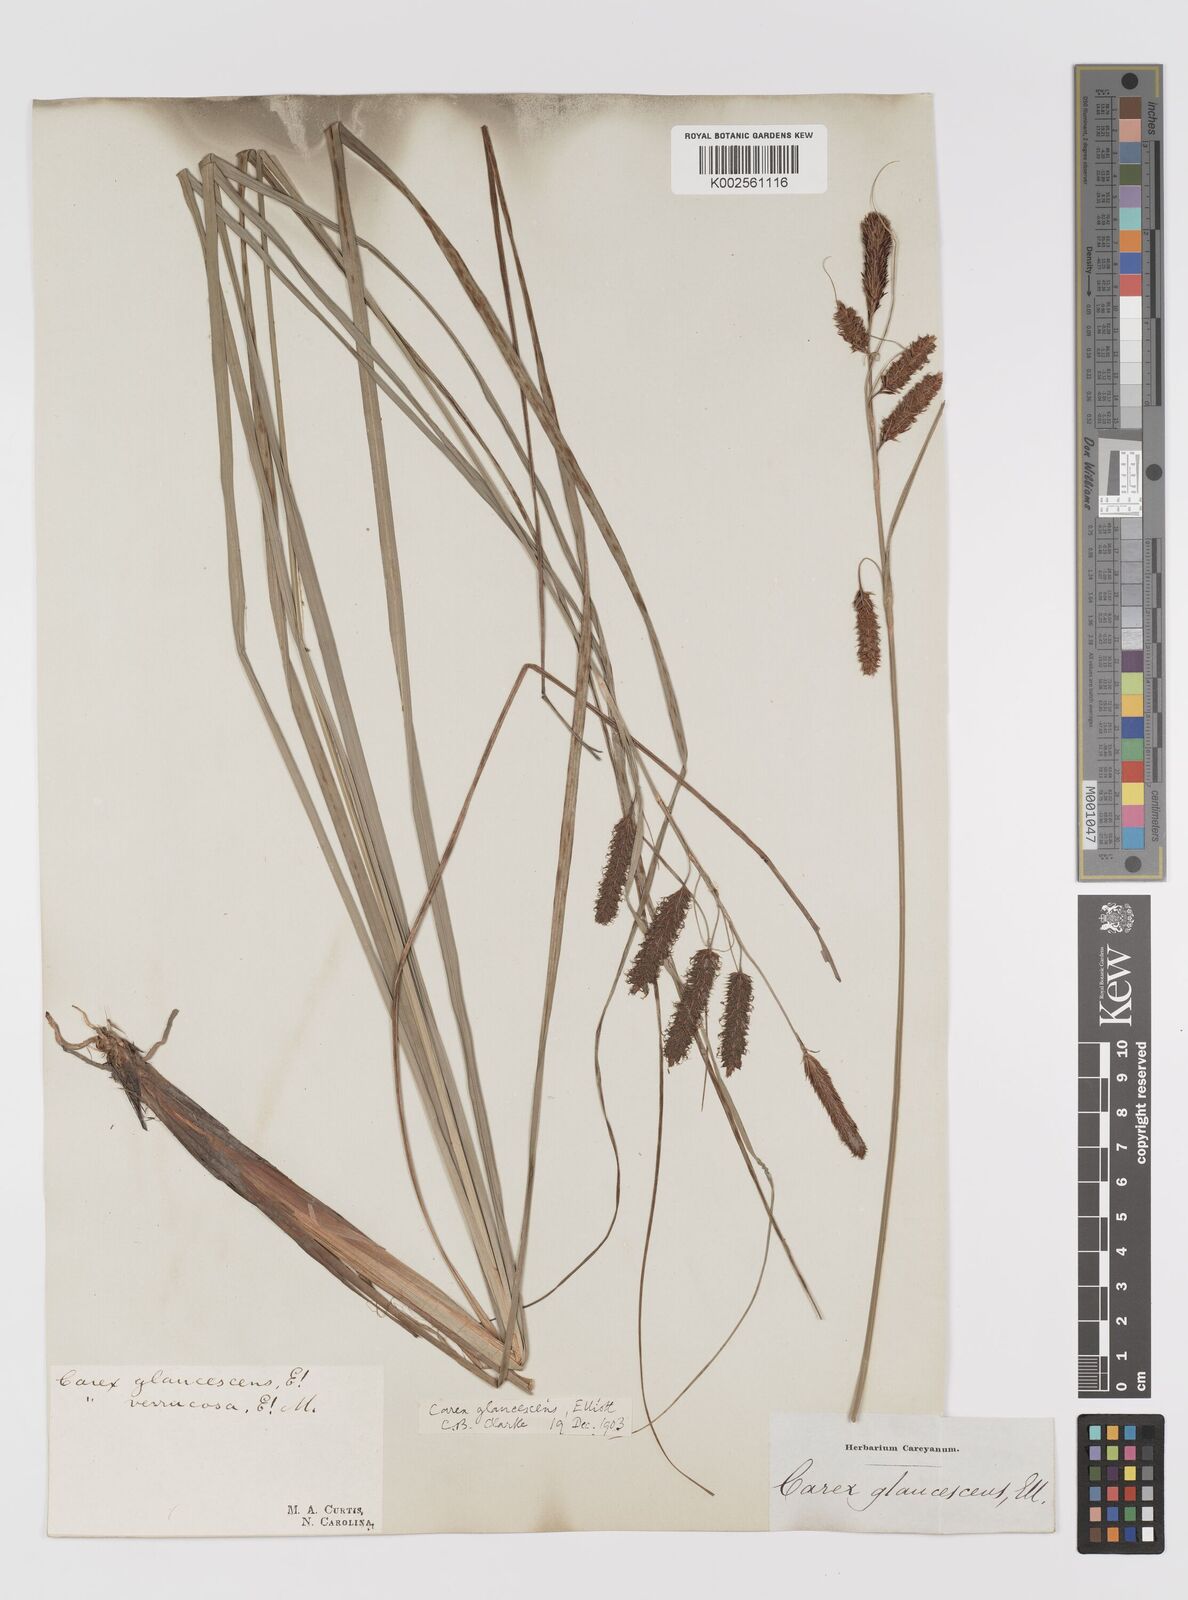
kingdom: Plantae
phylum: Tracheophyta
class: Liliopsida
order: Poales
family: Cyperaceae
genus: Carex
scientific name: Carex glaucescens
